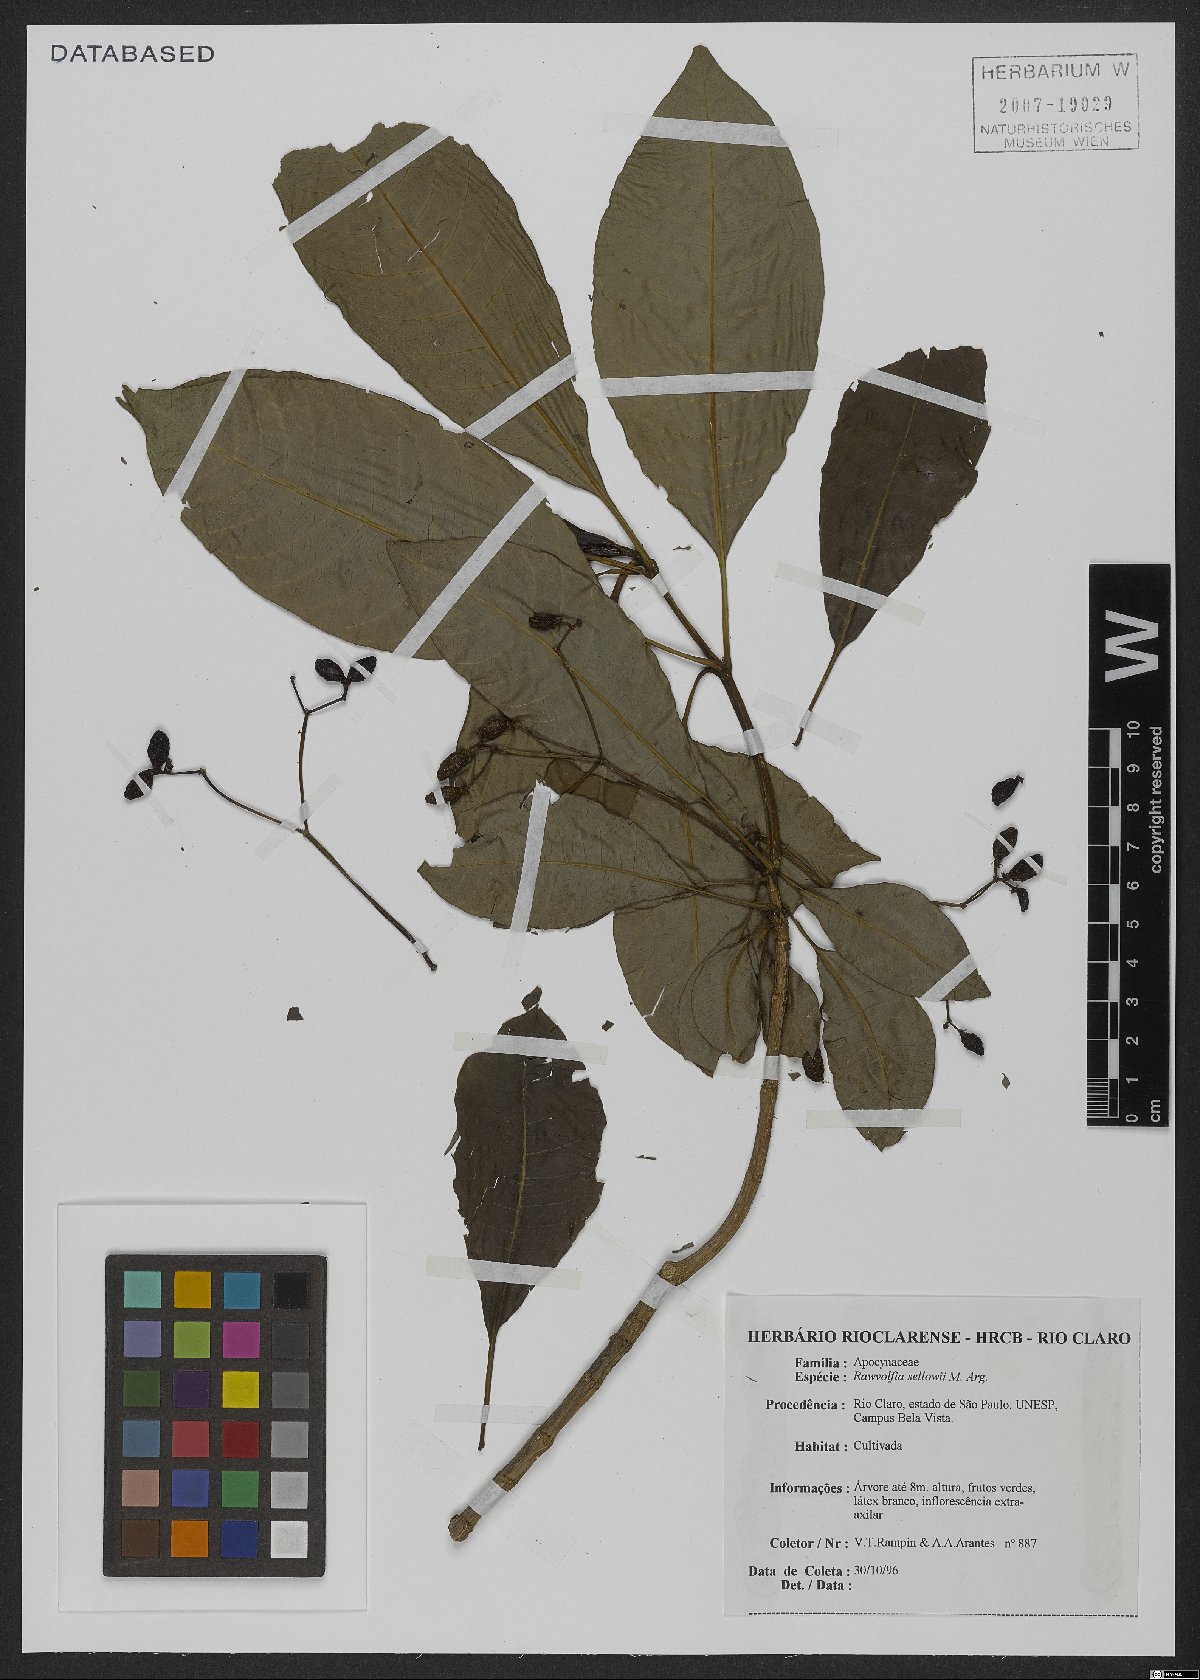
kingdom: Plantae
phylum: Tracheophyta
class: Magnoliopsida
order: Gentianales
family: Apocynaceae
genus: Rauvolfia
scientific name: Rauvolfia sellowii
